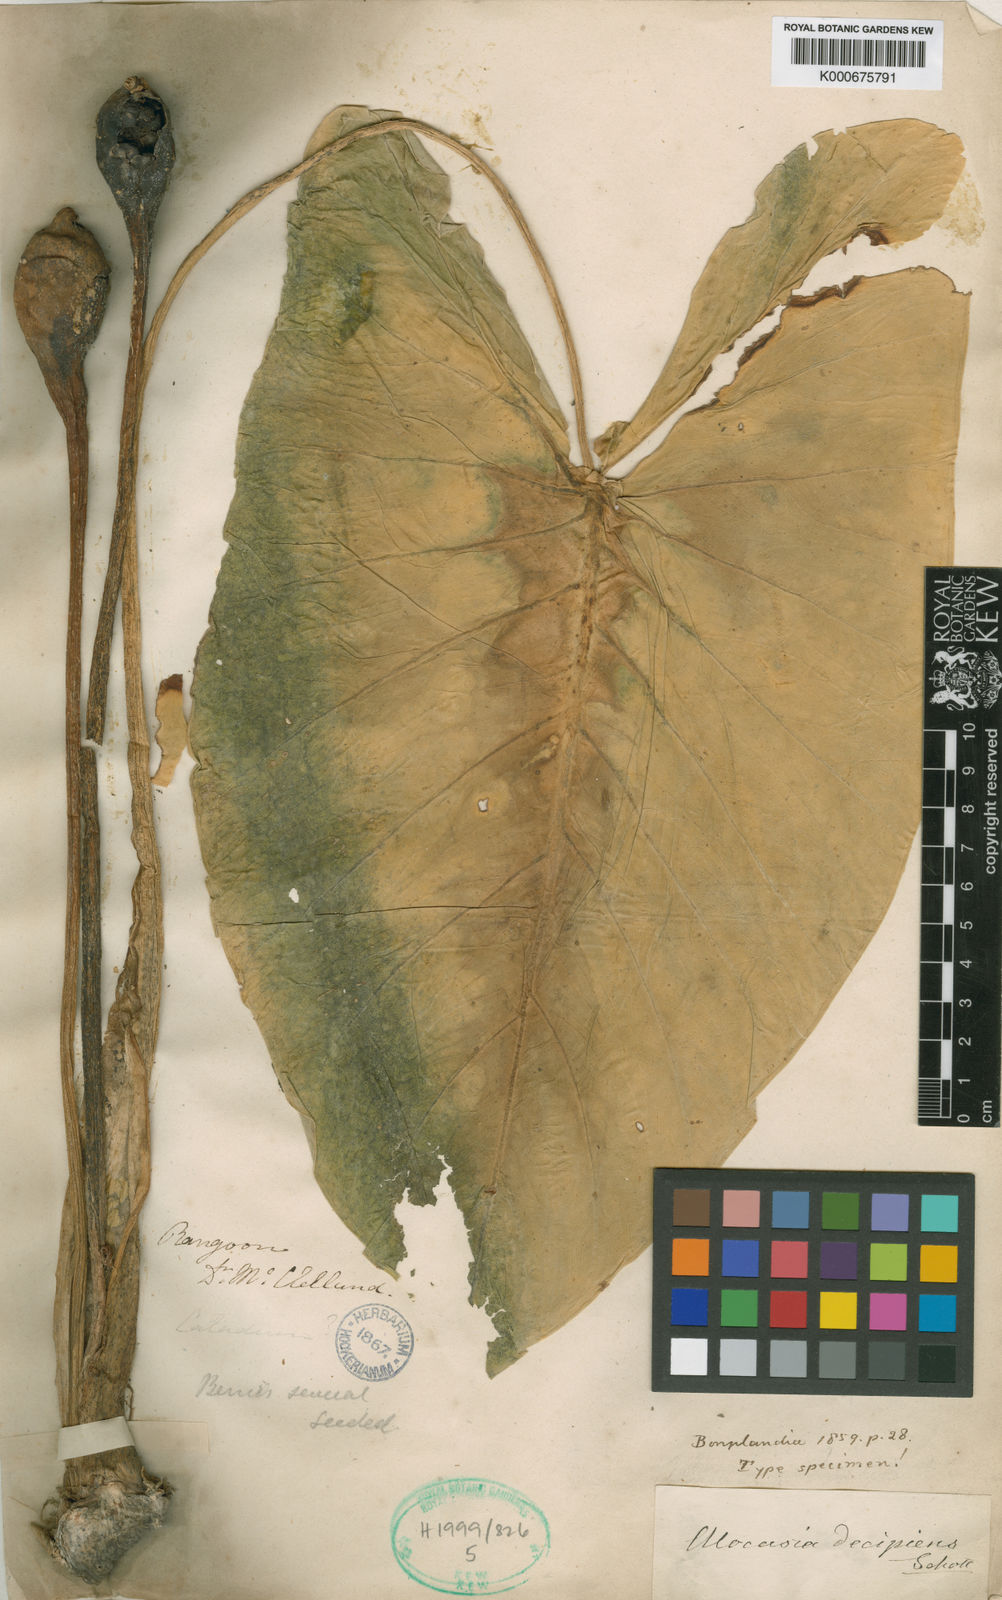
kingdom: Plantae
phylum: Tracheophyta
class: Liliopsida
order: Alismatales
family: Araceae
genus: Alocasia
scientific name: Alocasia decipiens
